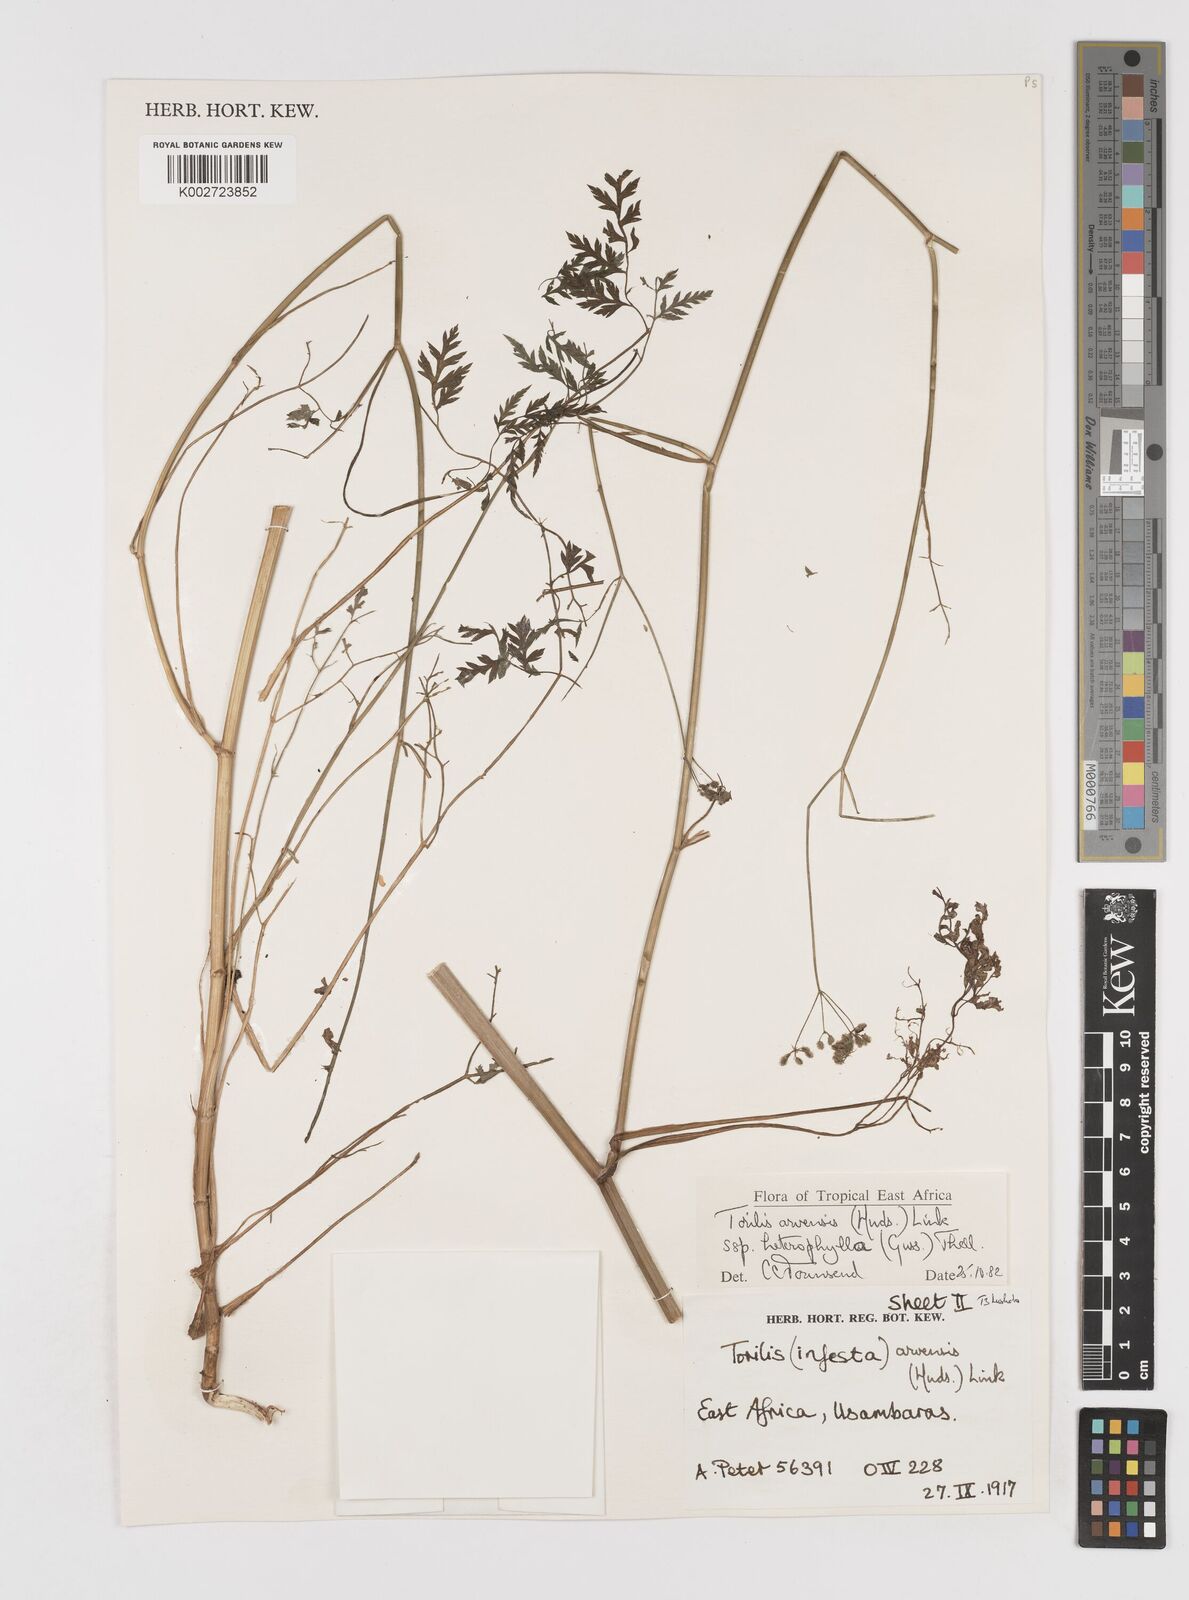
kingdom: Plantae
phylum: Tracheophyta
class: Magnoliopsida
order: Apiales
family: Apiaceae
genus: Torilis
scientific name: Torilis arvensis
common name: Spreading hedge-parsley
